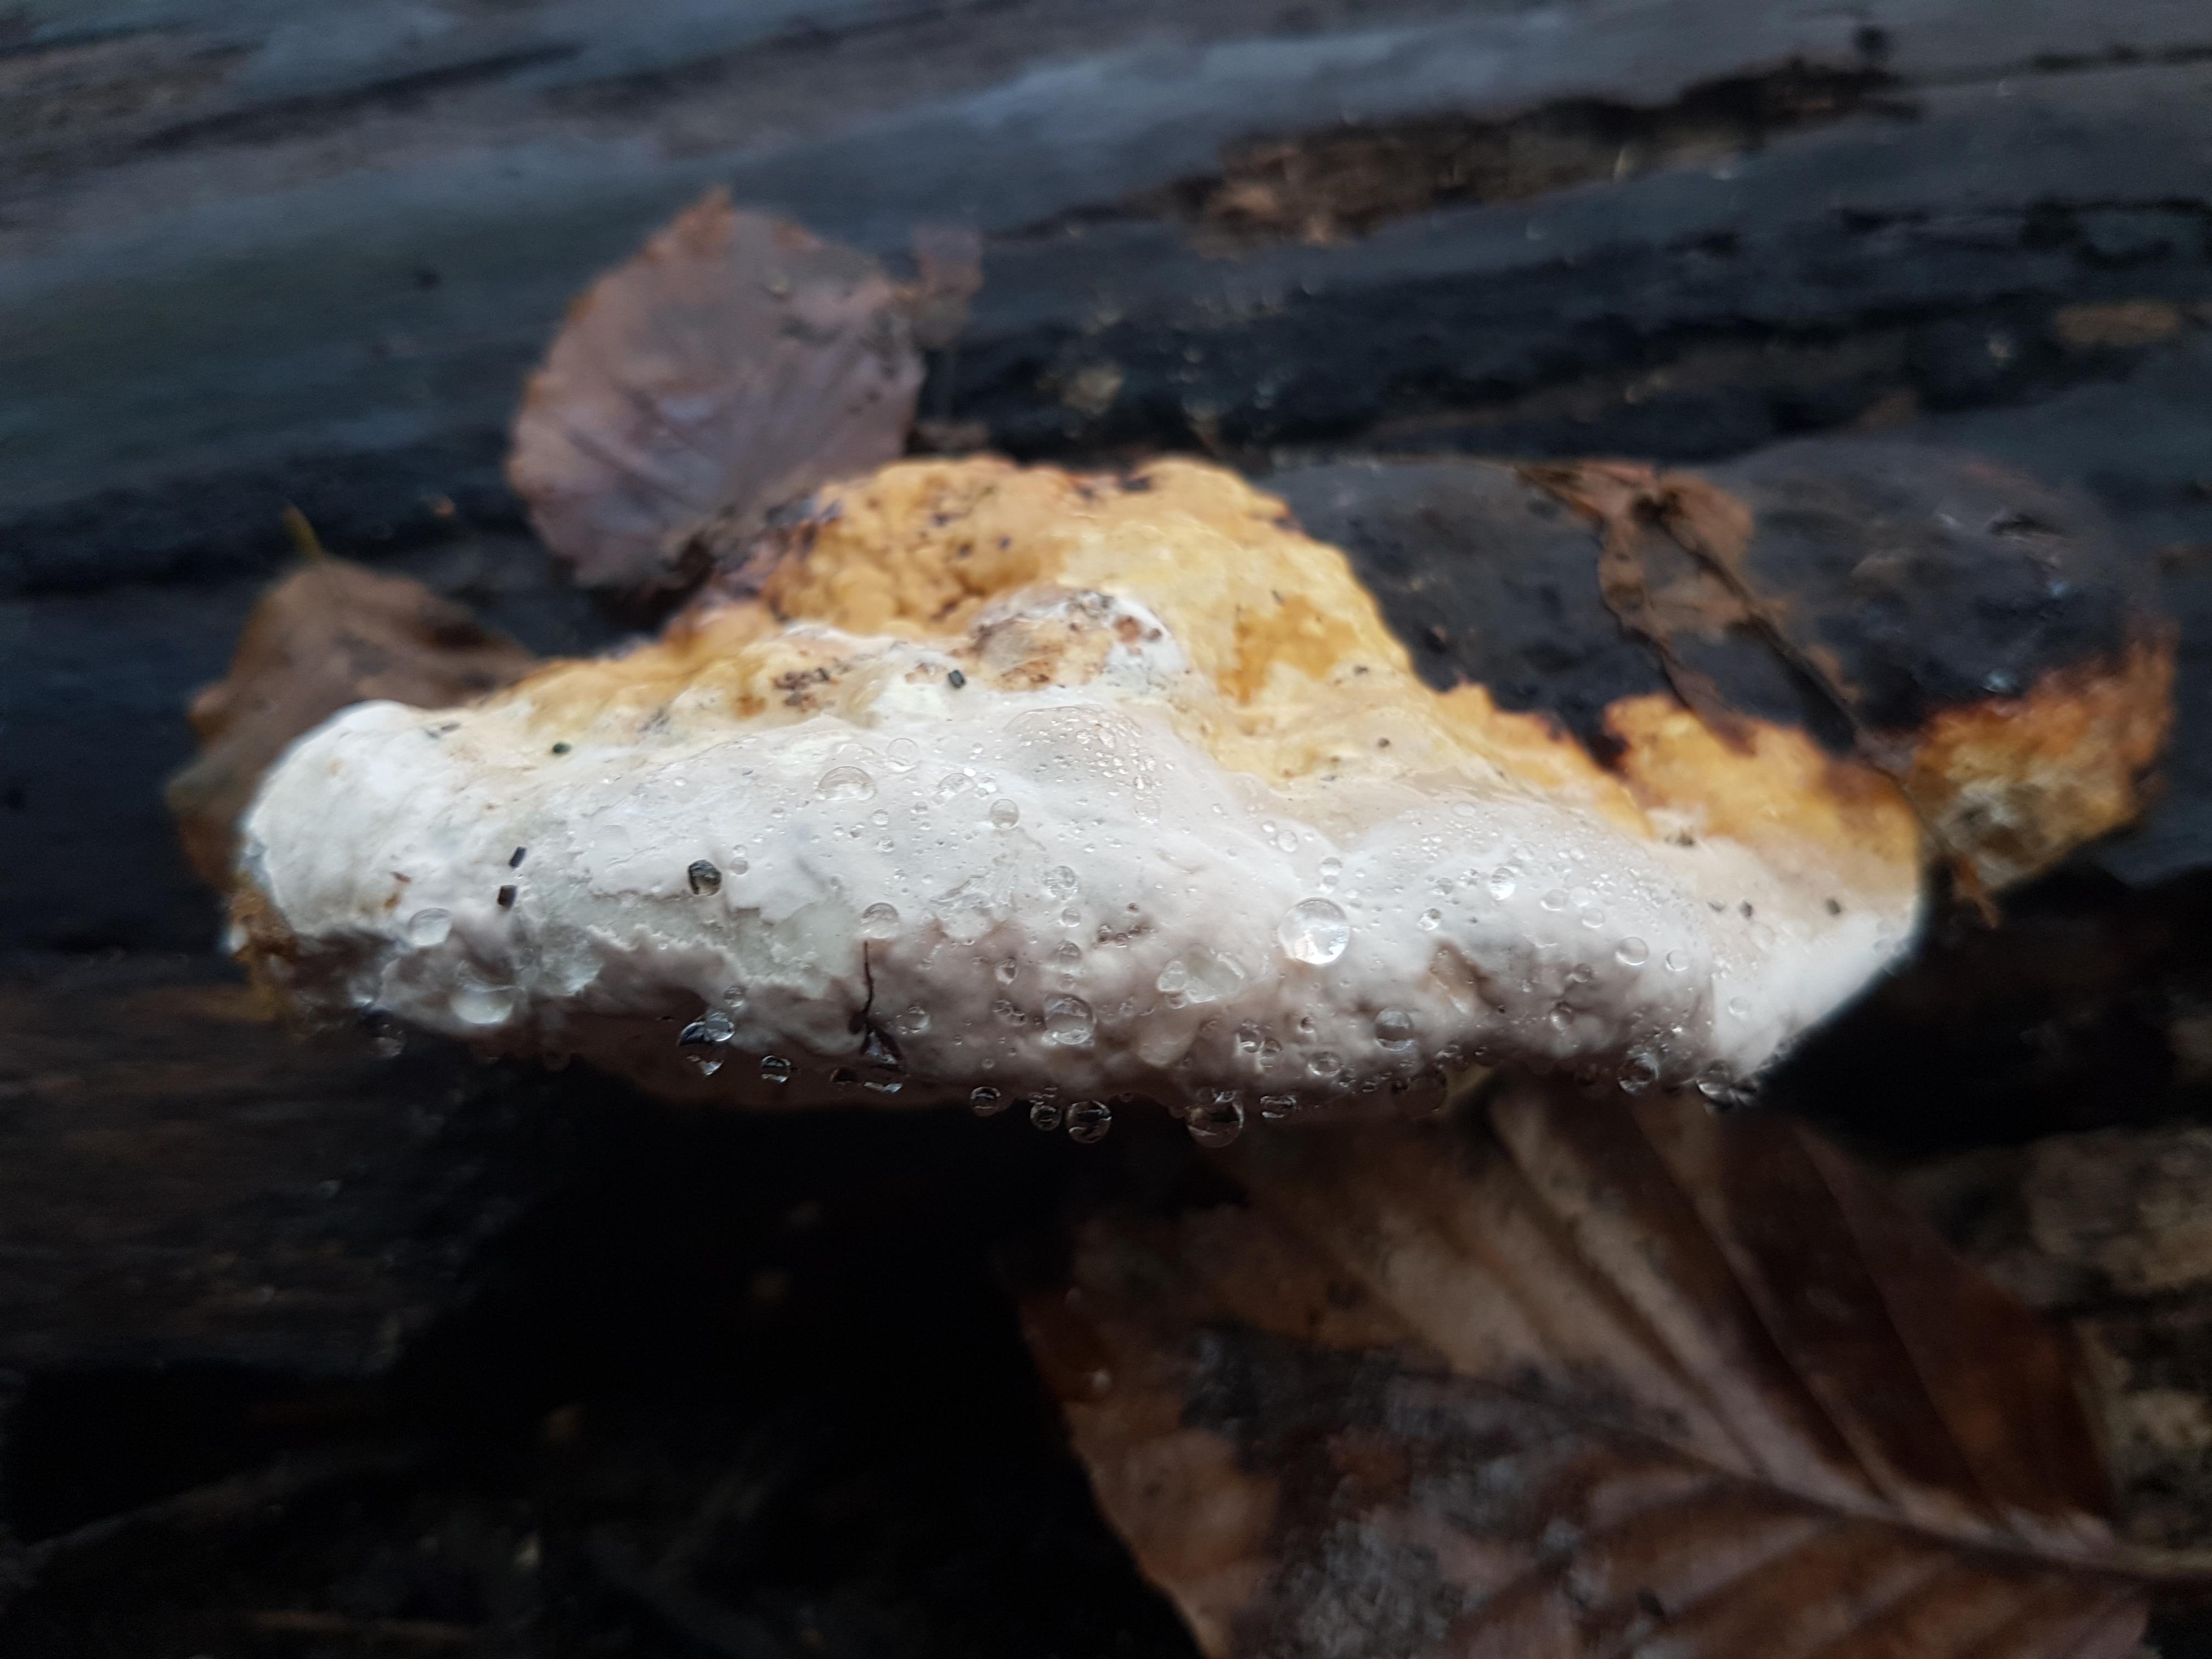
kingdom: Fungi
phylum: Basidiomycota
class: Agaricomycetes
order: Polyporales
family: Fomitopsidaceae
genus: Fomitopsis
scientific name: Fomitopsis pinicola
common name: randbæltet hovporesvamp
